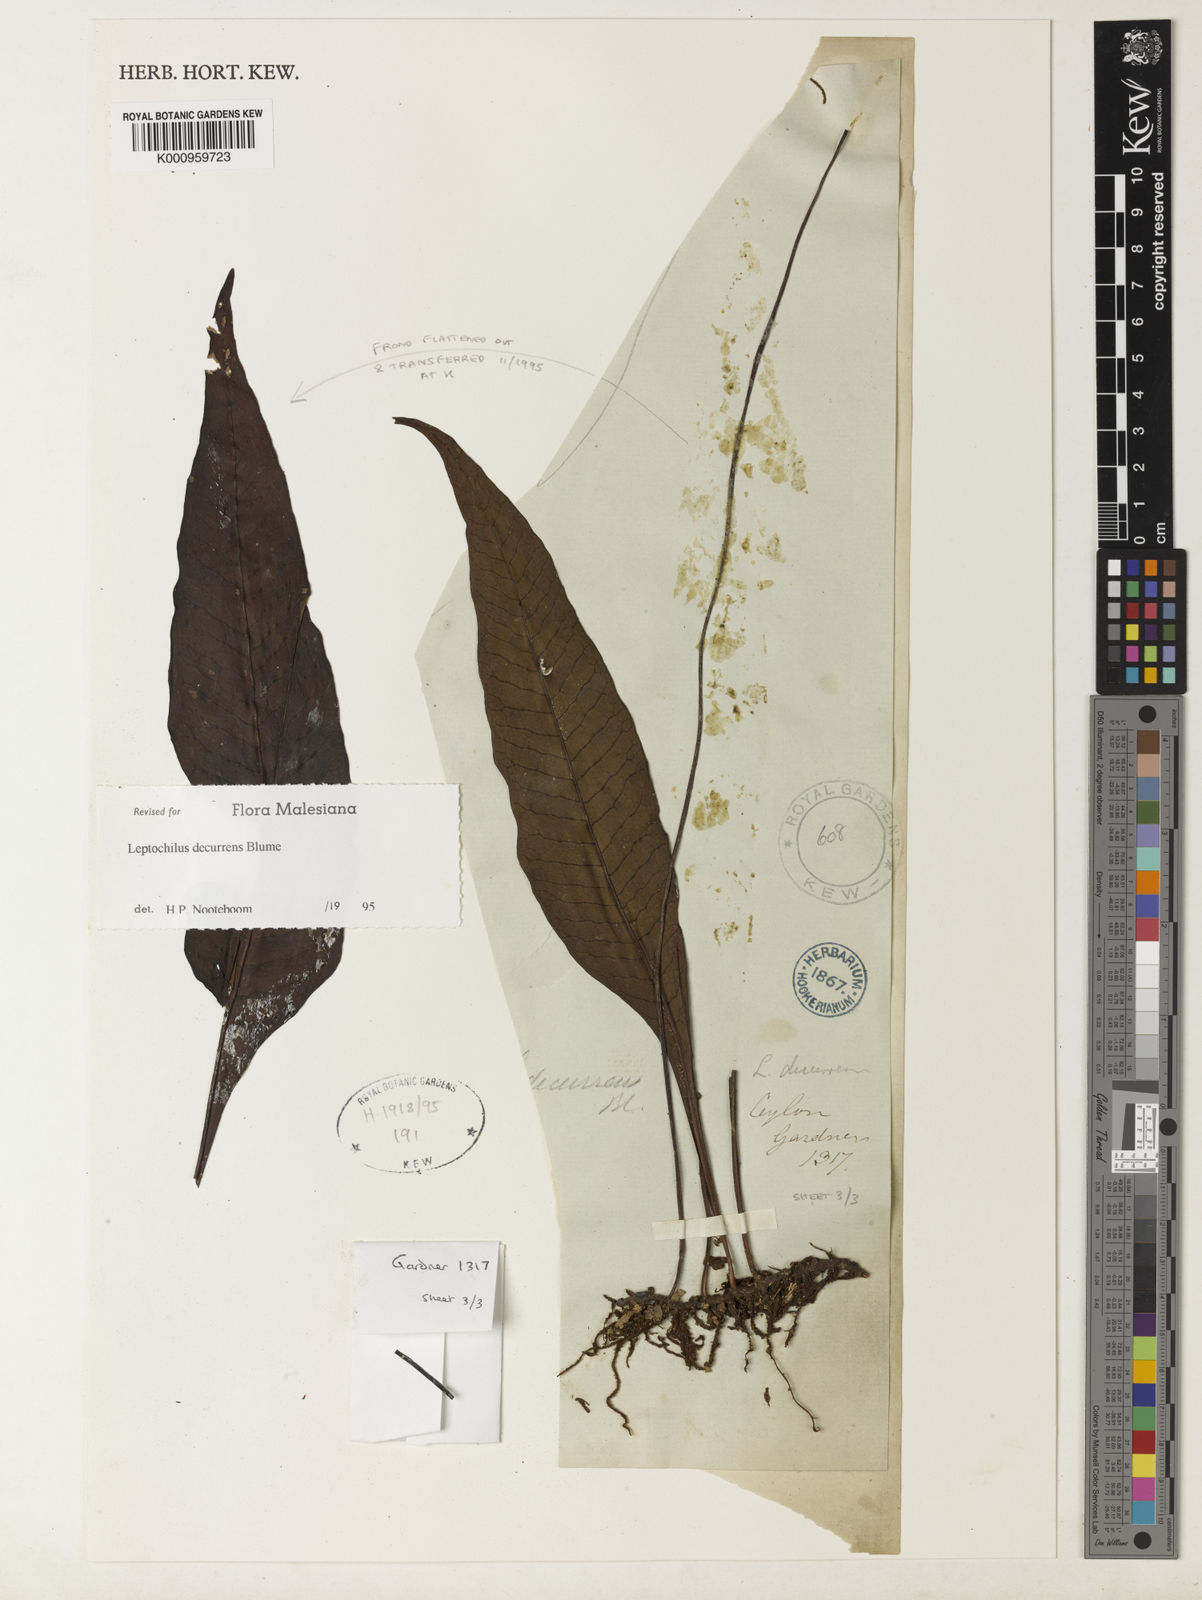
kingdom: Plantae
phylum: Tracheophyta
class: Polypodiopsida
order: Polypodiales
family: Polypodiaceae
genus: Leptochilus
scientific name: Leptochilus decurrens
